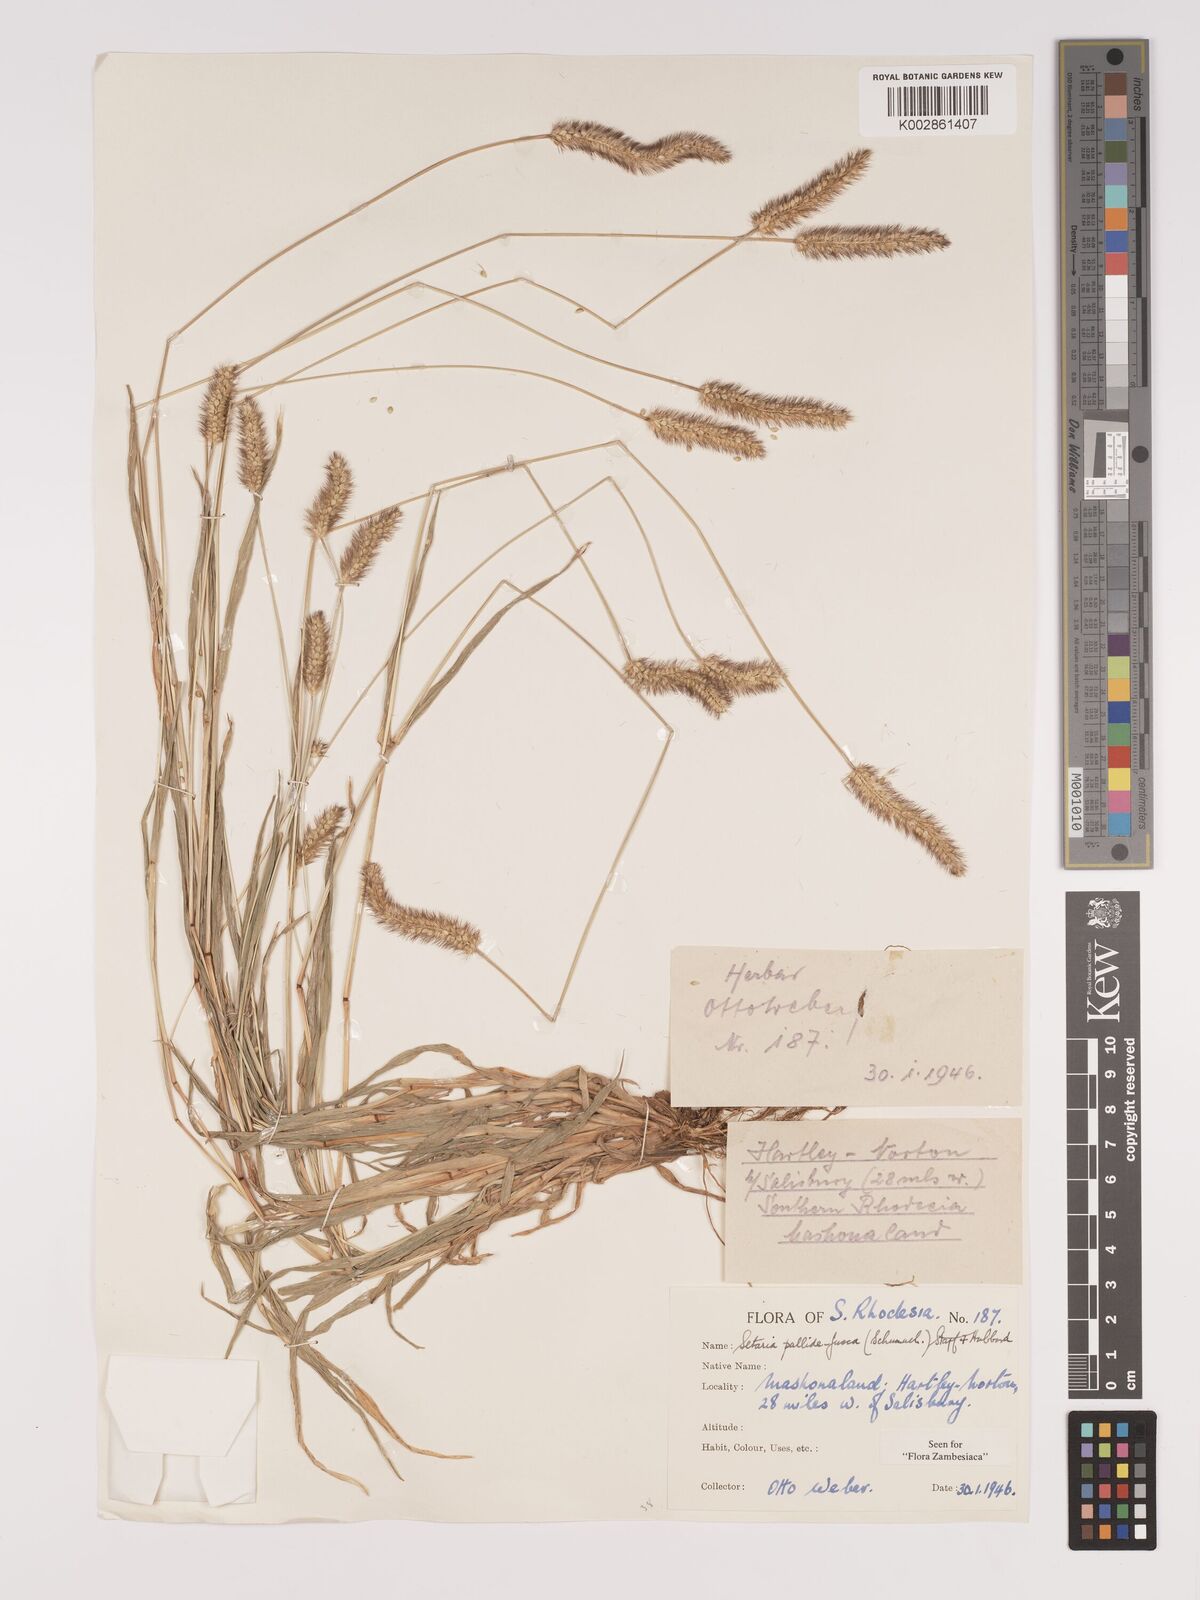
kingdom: Plantae
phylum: Tracheophyta
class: Liliopsida
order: Poales
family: Poaceae
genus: Setaria
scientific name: Setaria pumila
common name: Yellow bristle-grass
